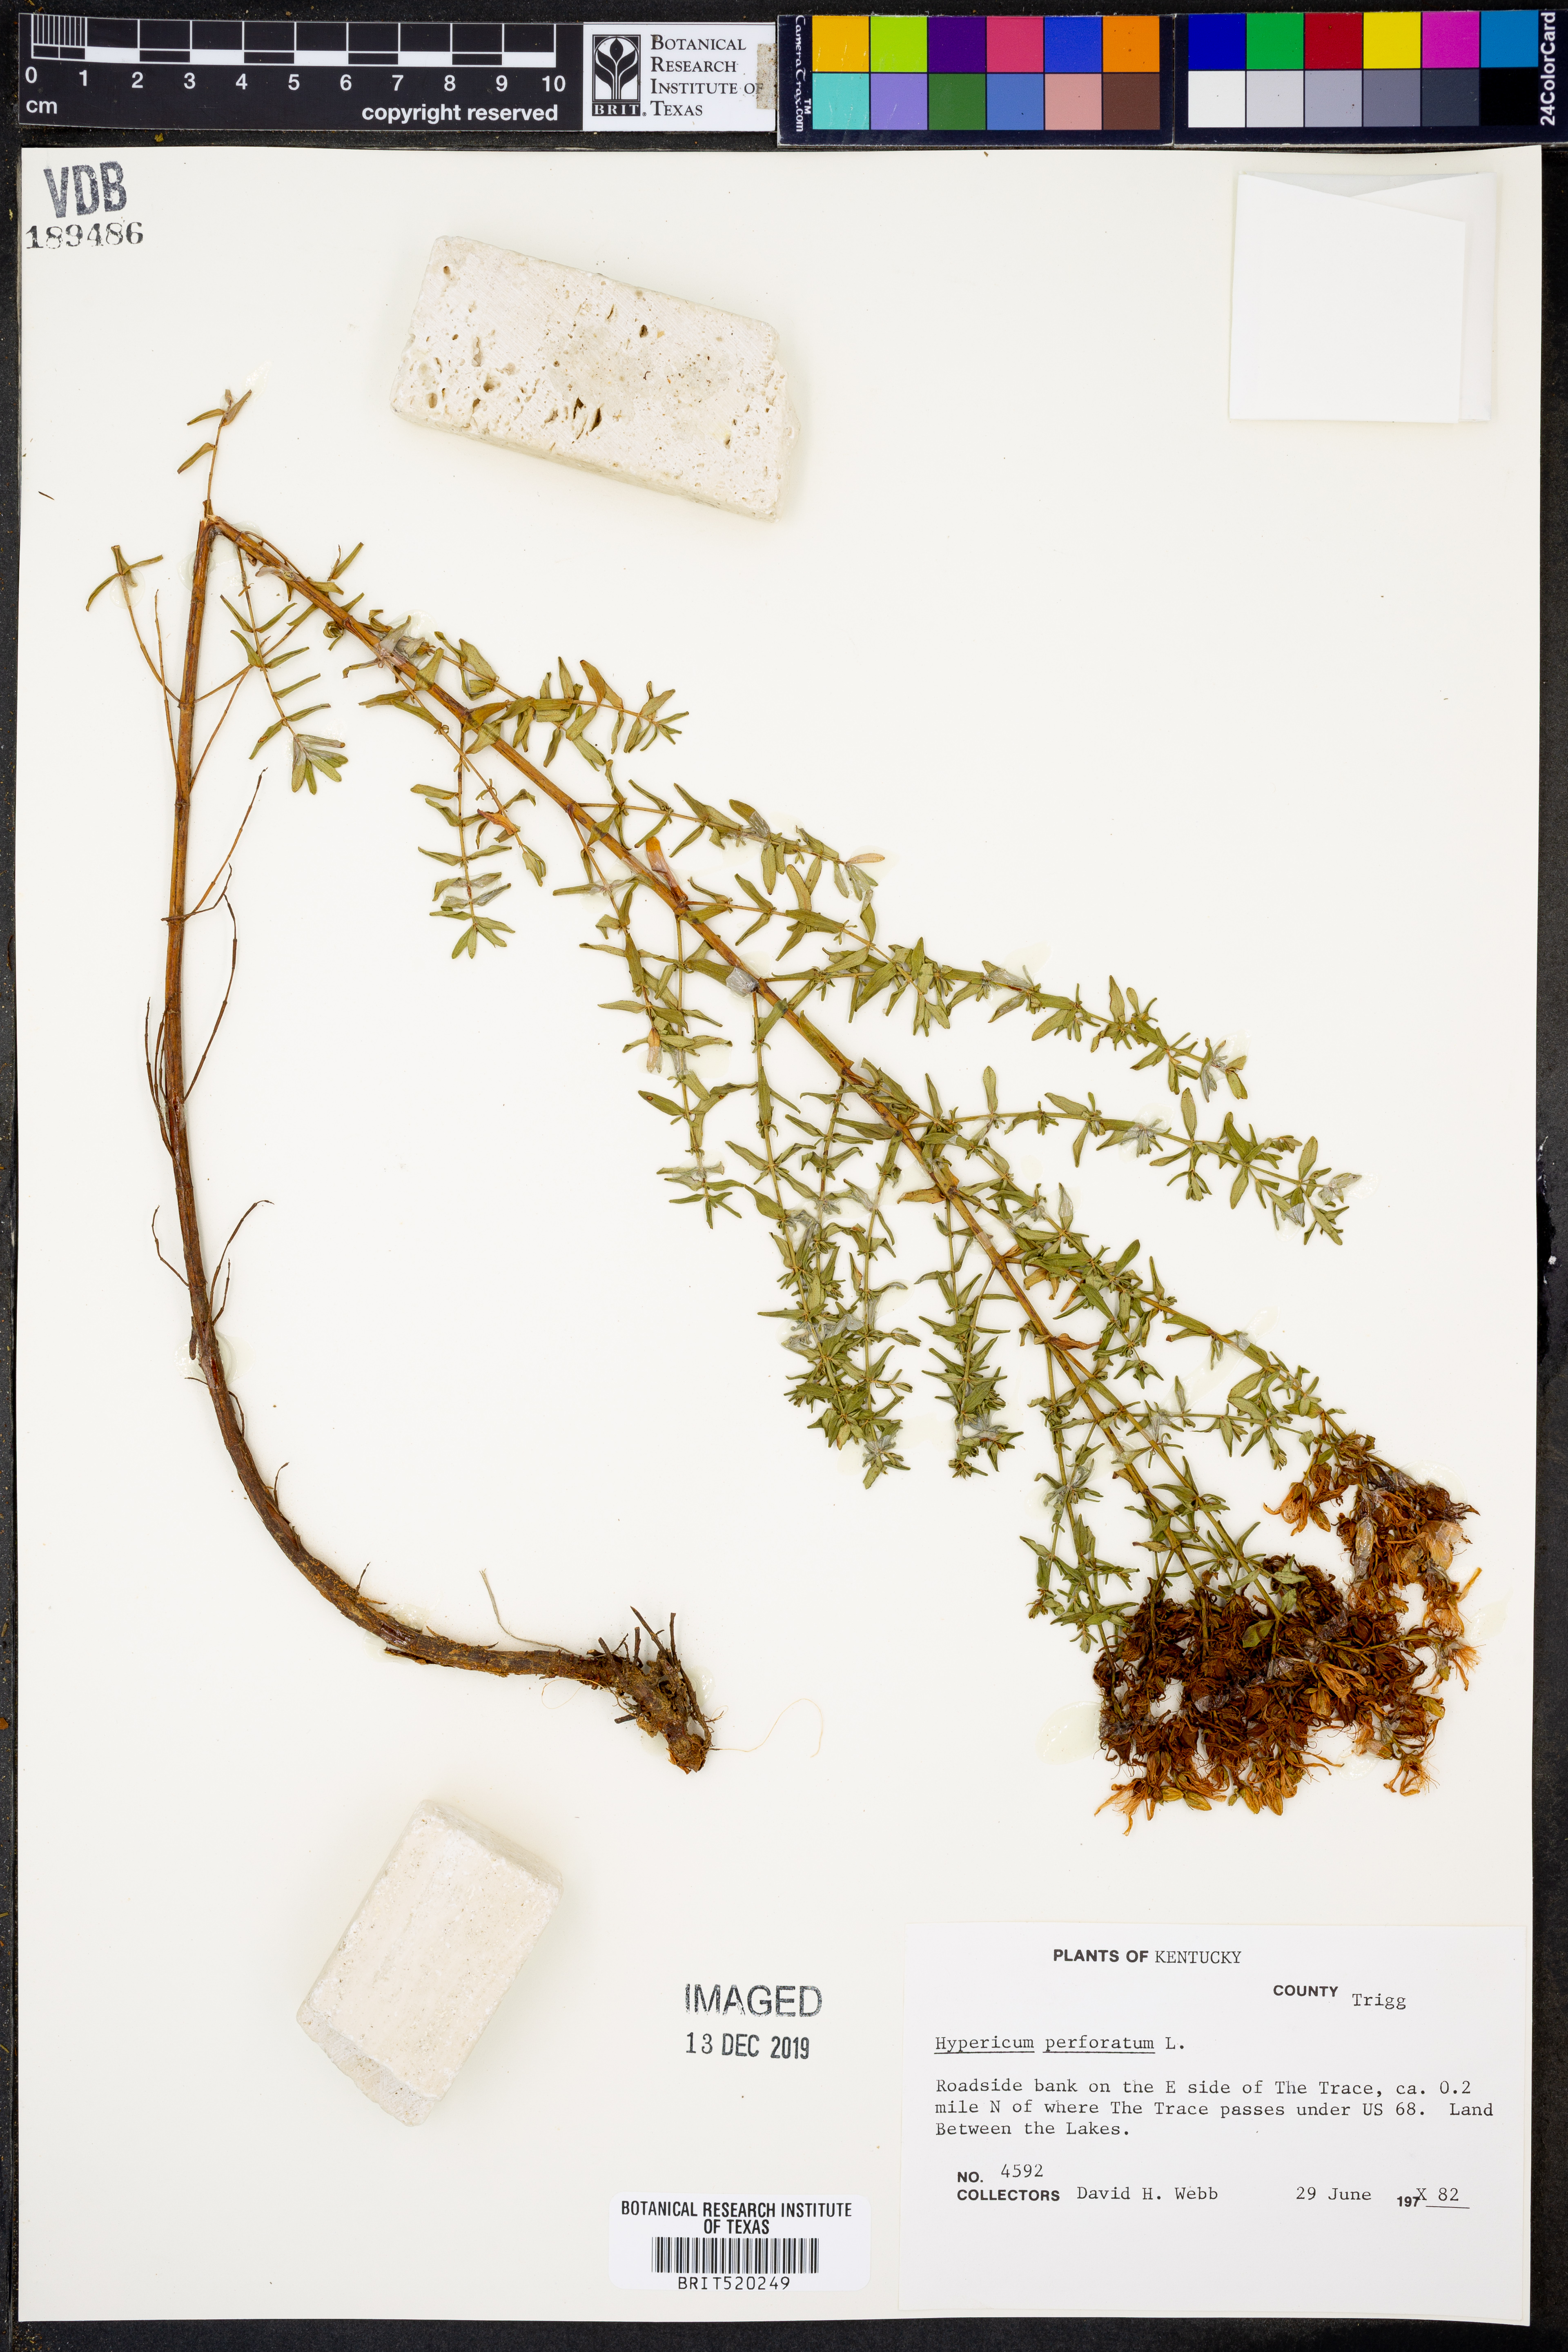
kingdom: Plantae
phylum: Tracheophyta
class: Magnoliopsida
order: Malpighiales
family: Hypericaceae
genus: Hypericum
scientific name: Hypericum perforatum
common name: Common st. johnswort
